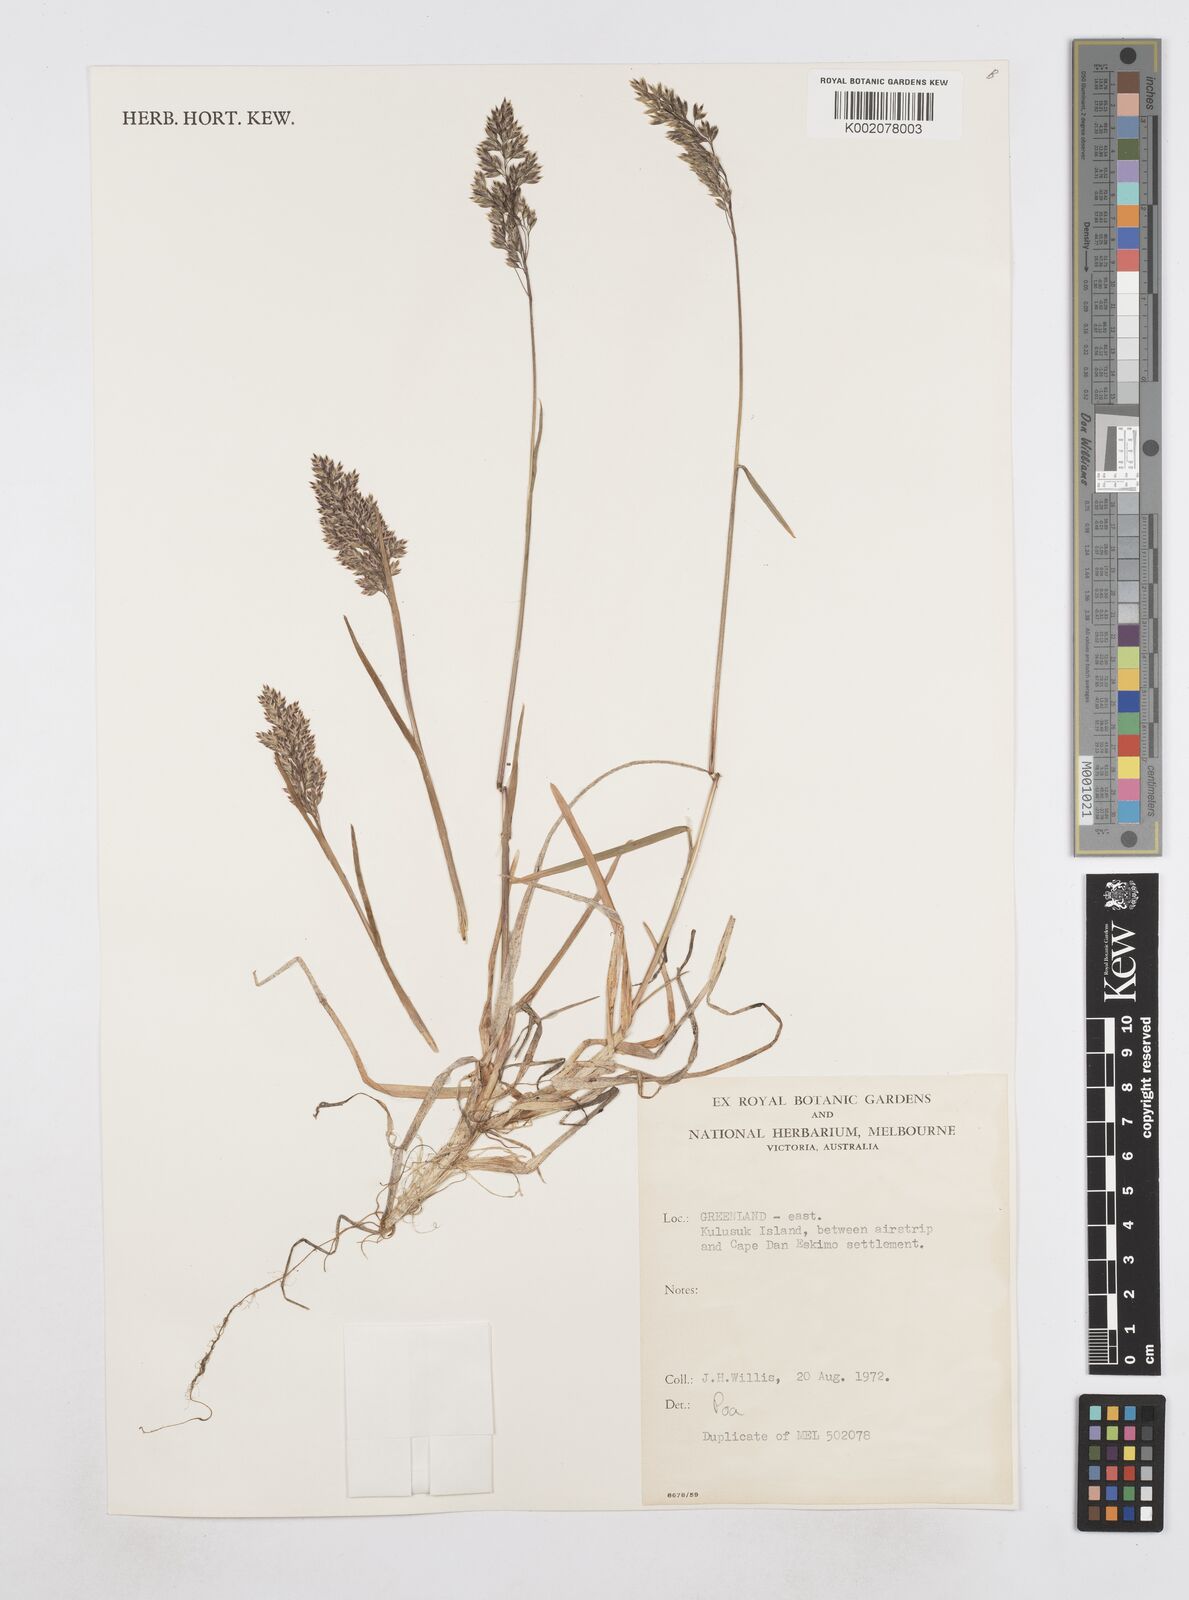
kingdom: Plantae
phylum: Tracheophyta
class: Liliopsida
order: Poales
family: Poaceae
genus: Poa
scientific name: Poa
